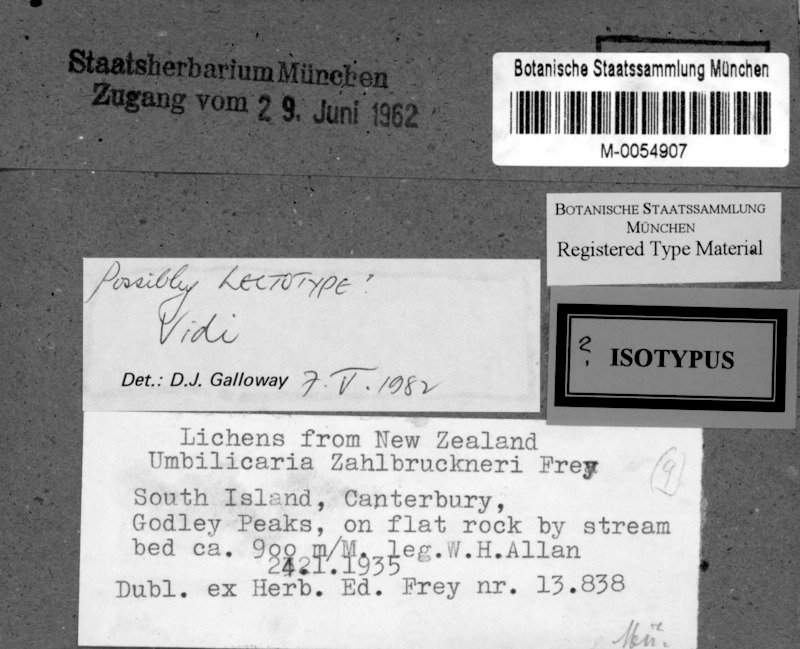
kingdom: Fungi
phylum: Ascomycota
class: Lecanoromycetes
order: Umbilicariales
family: Umbilicariaceae
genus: Umbilicaria
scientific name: Umbilicaria
